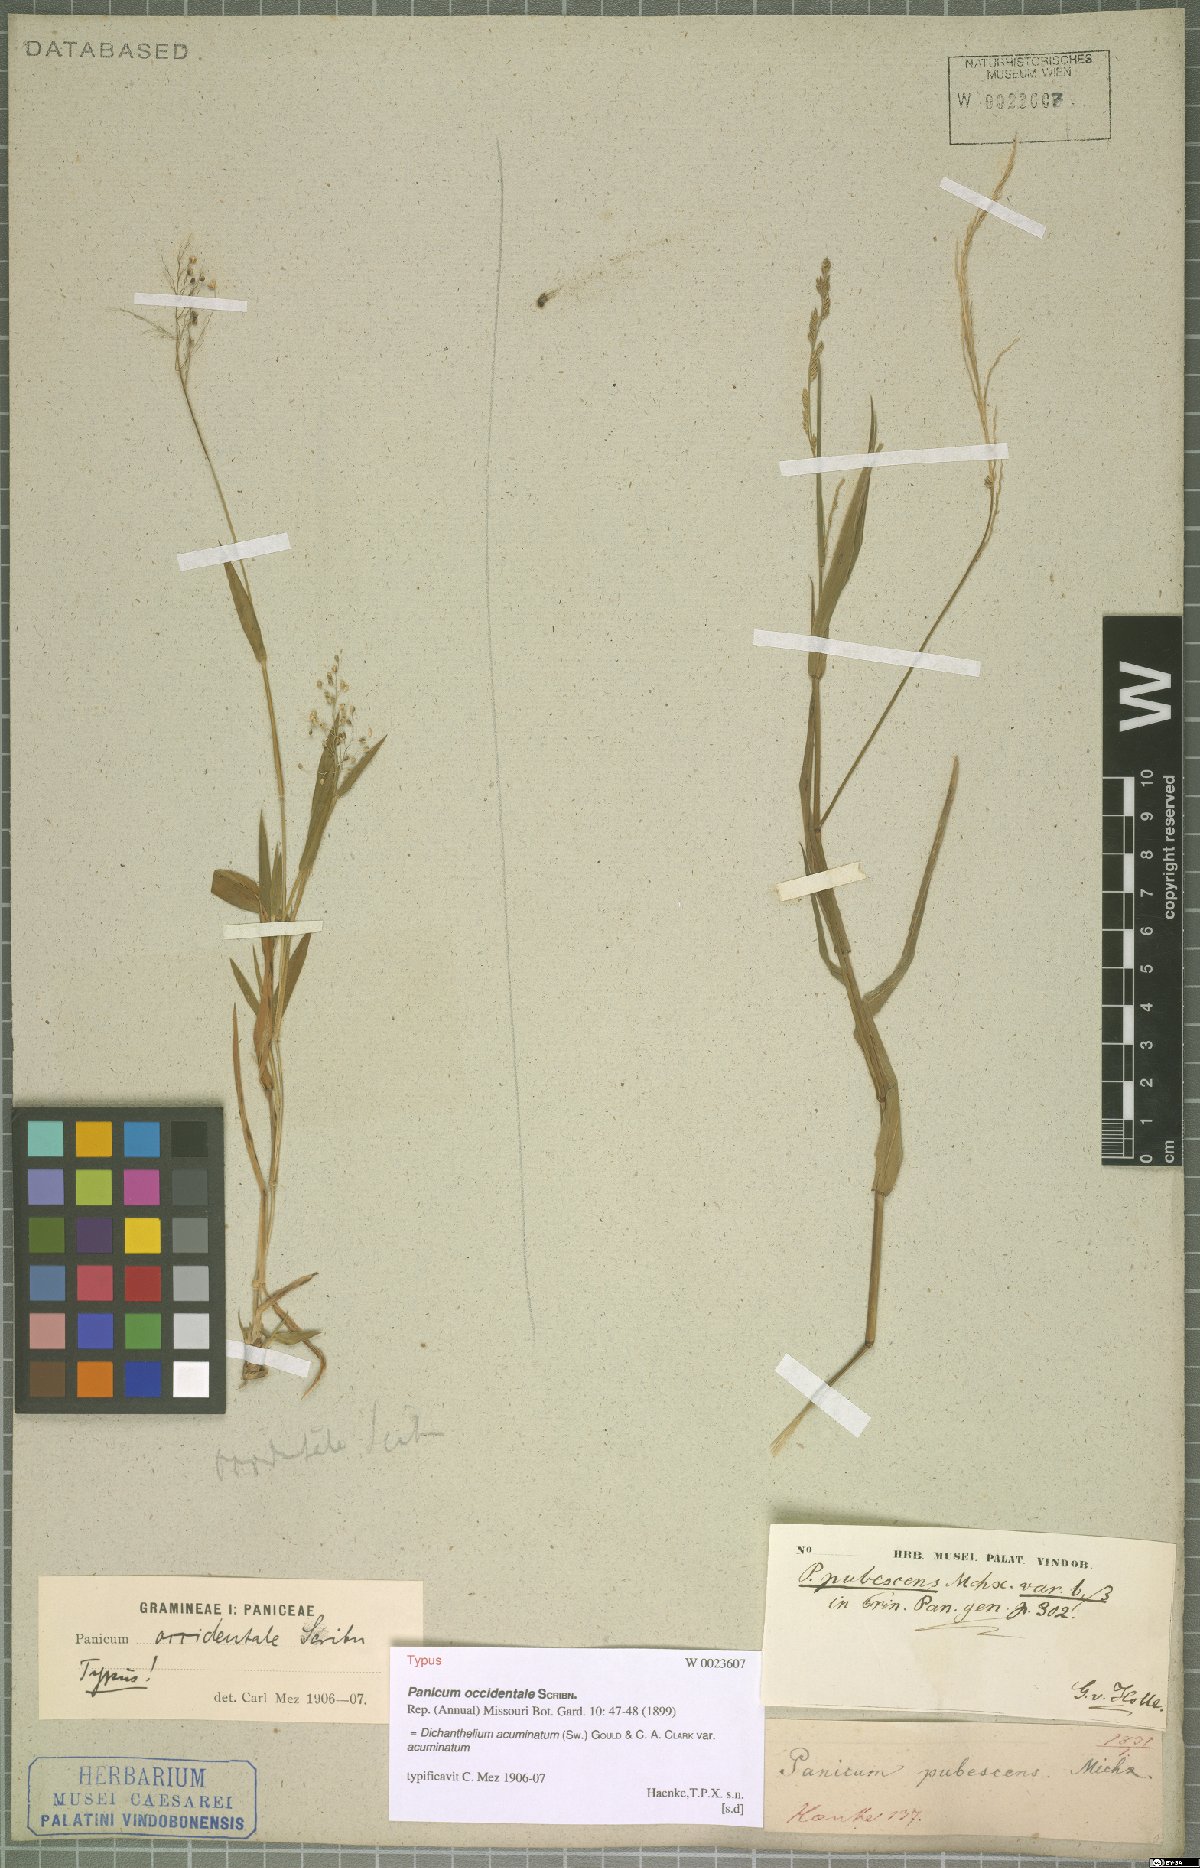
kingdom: Plantae
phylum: Tracheophyta
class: Liliopsida
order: Poales
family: Poaceae
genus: Dichanthelium
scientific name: Dichanthelium acuminatum
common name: Hairy panic grass
